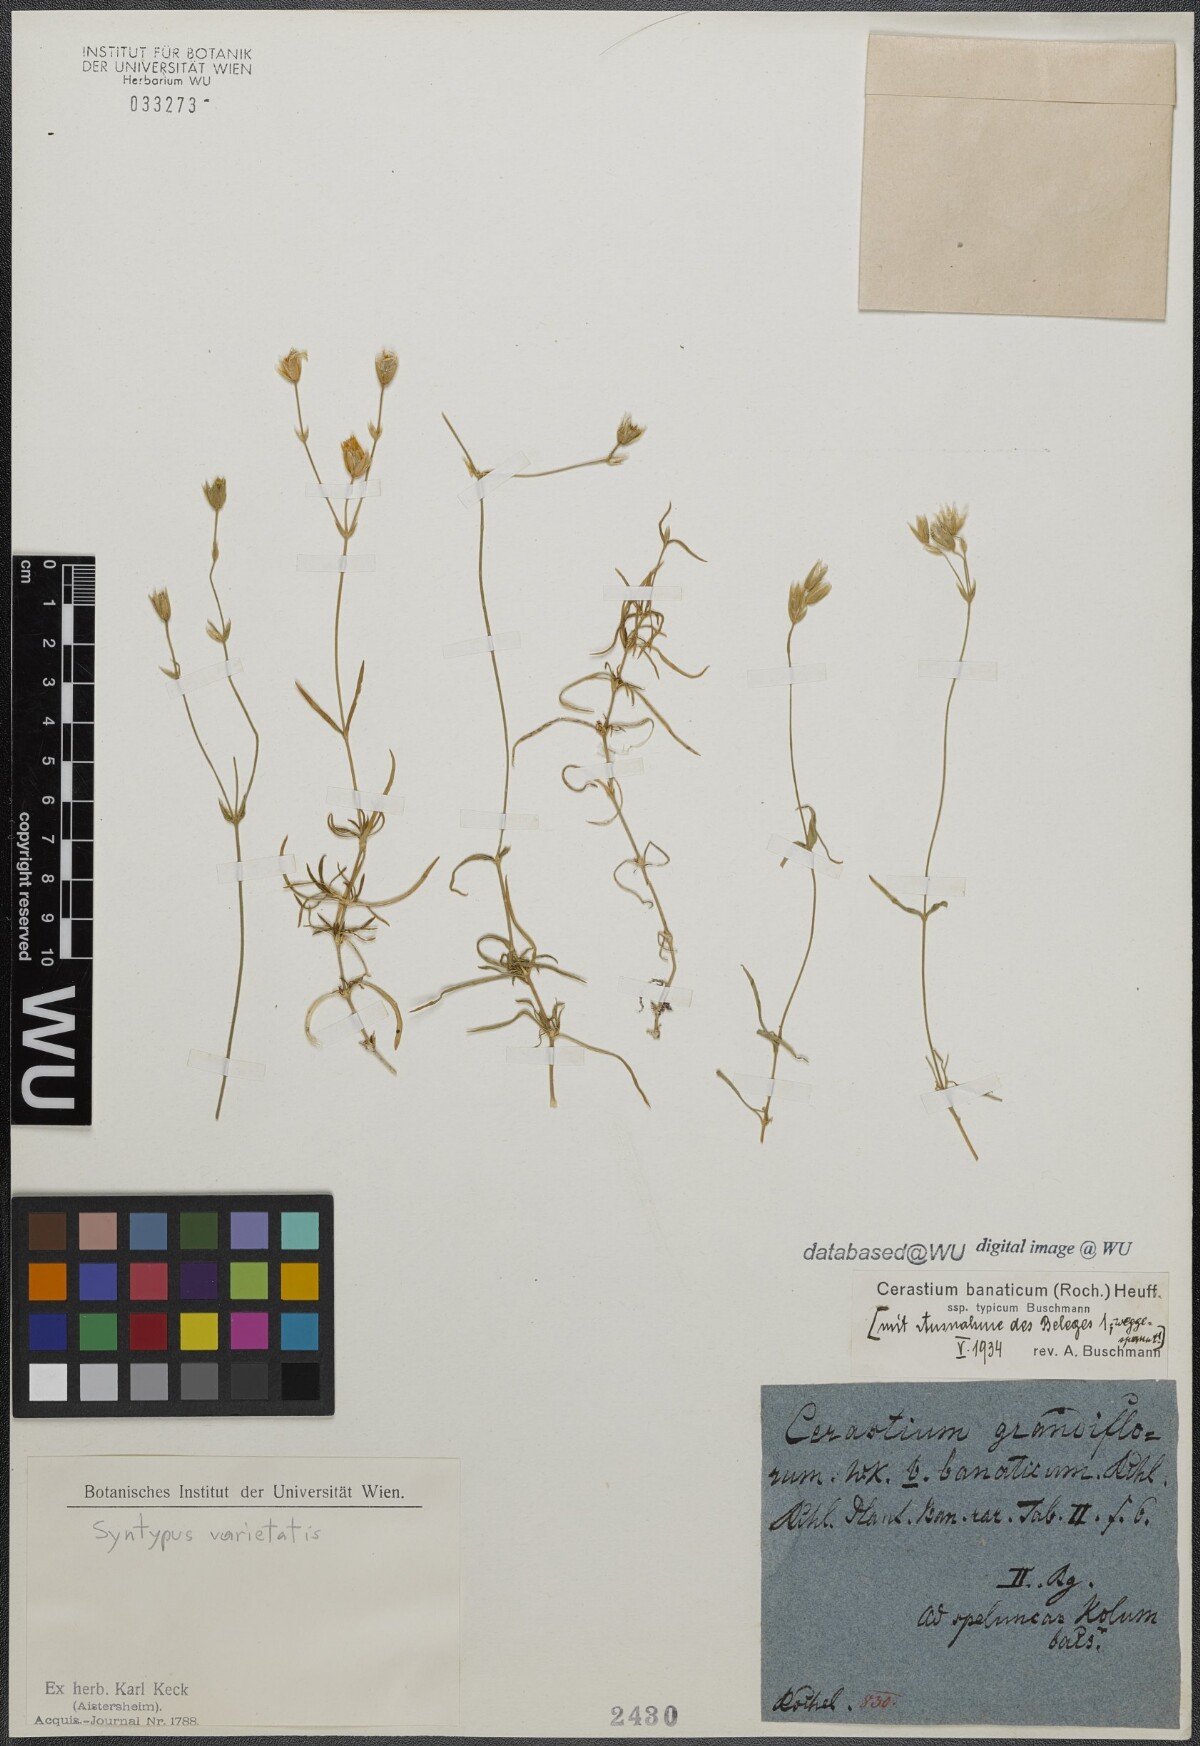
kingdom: Plantae
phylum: Tracheophyta
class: Magnoliopsida
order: Caryophyllales
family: Caryophyllaceae
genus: Cerastium
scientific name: Cerastium banaticum
